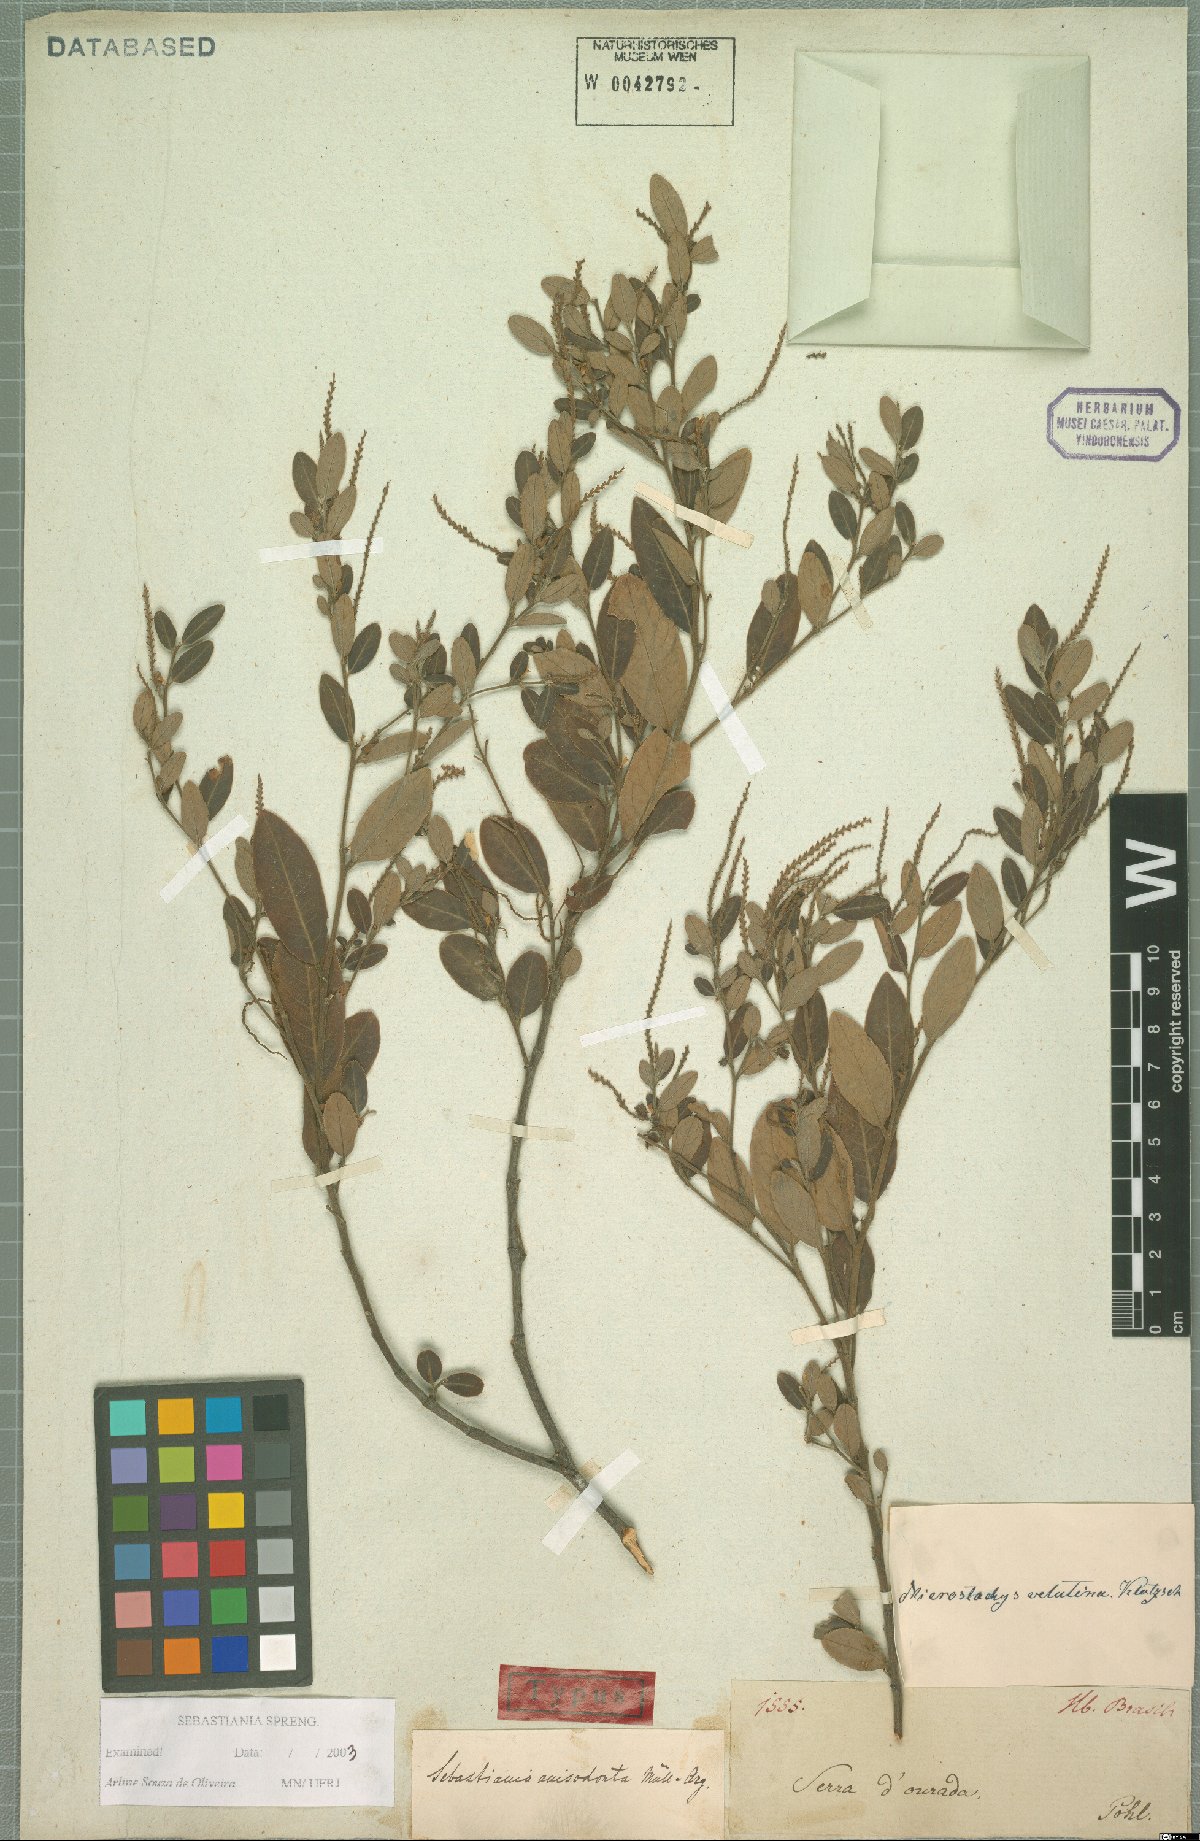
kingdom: Plantae
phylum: Tracheophyta
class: Magnoliopsida
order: Malpighiales
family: Euphorbiaceae
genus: Sebastiania
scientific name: Sebastiania
